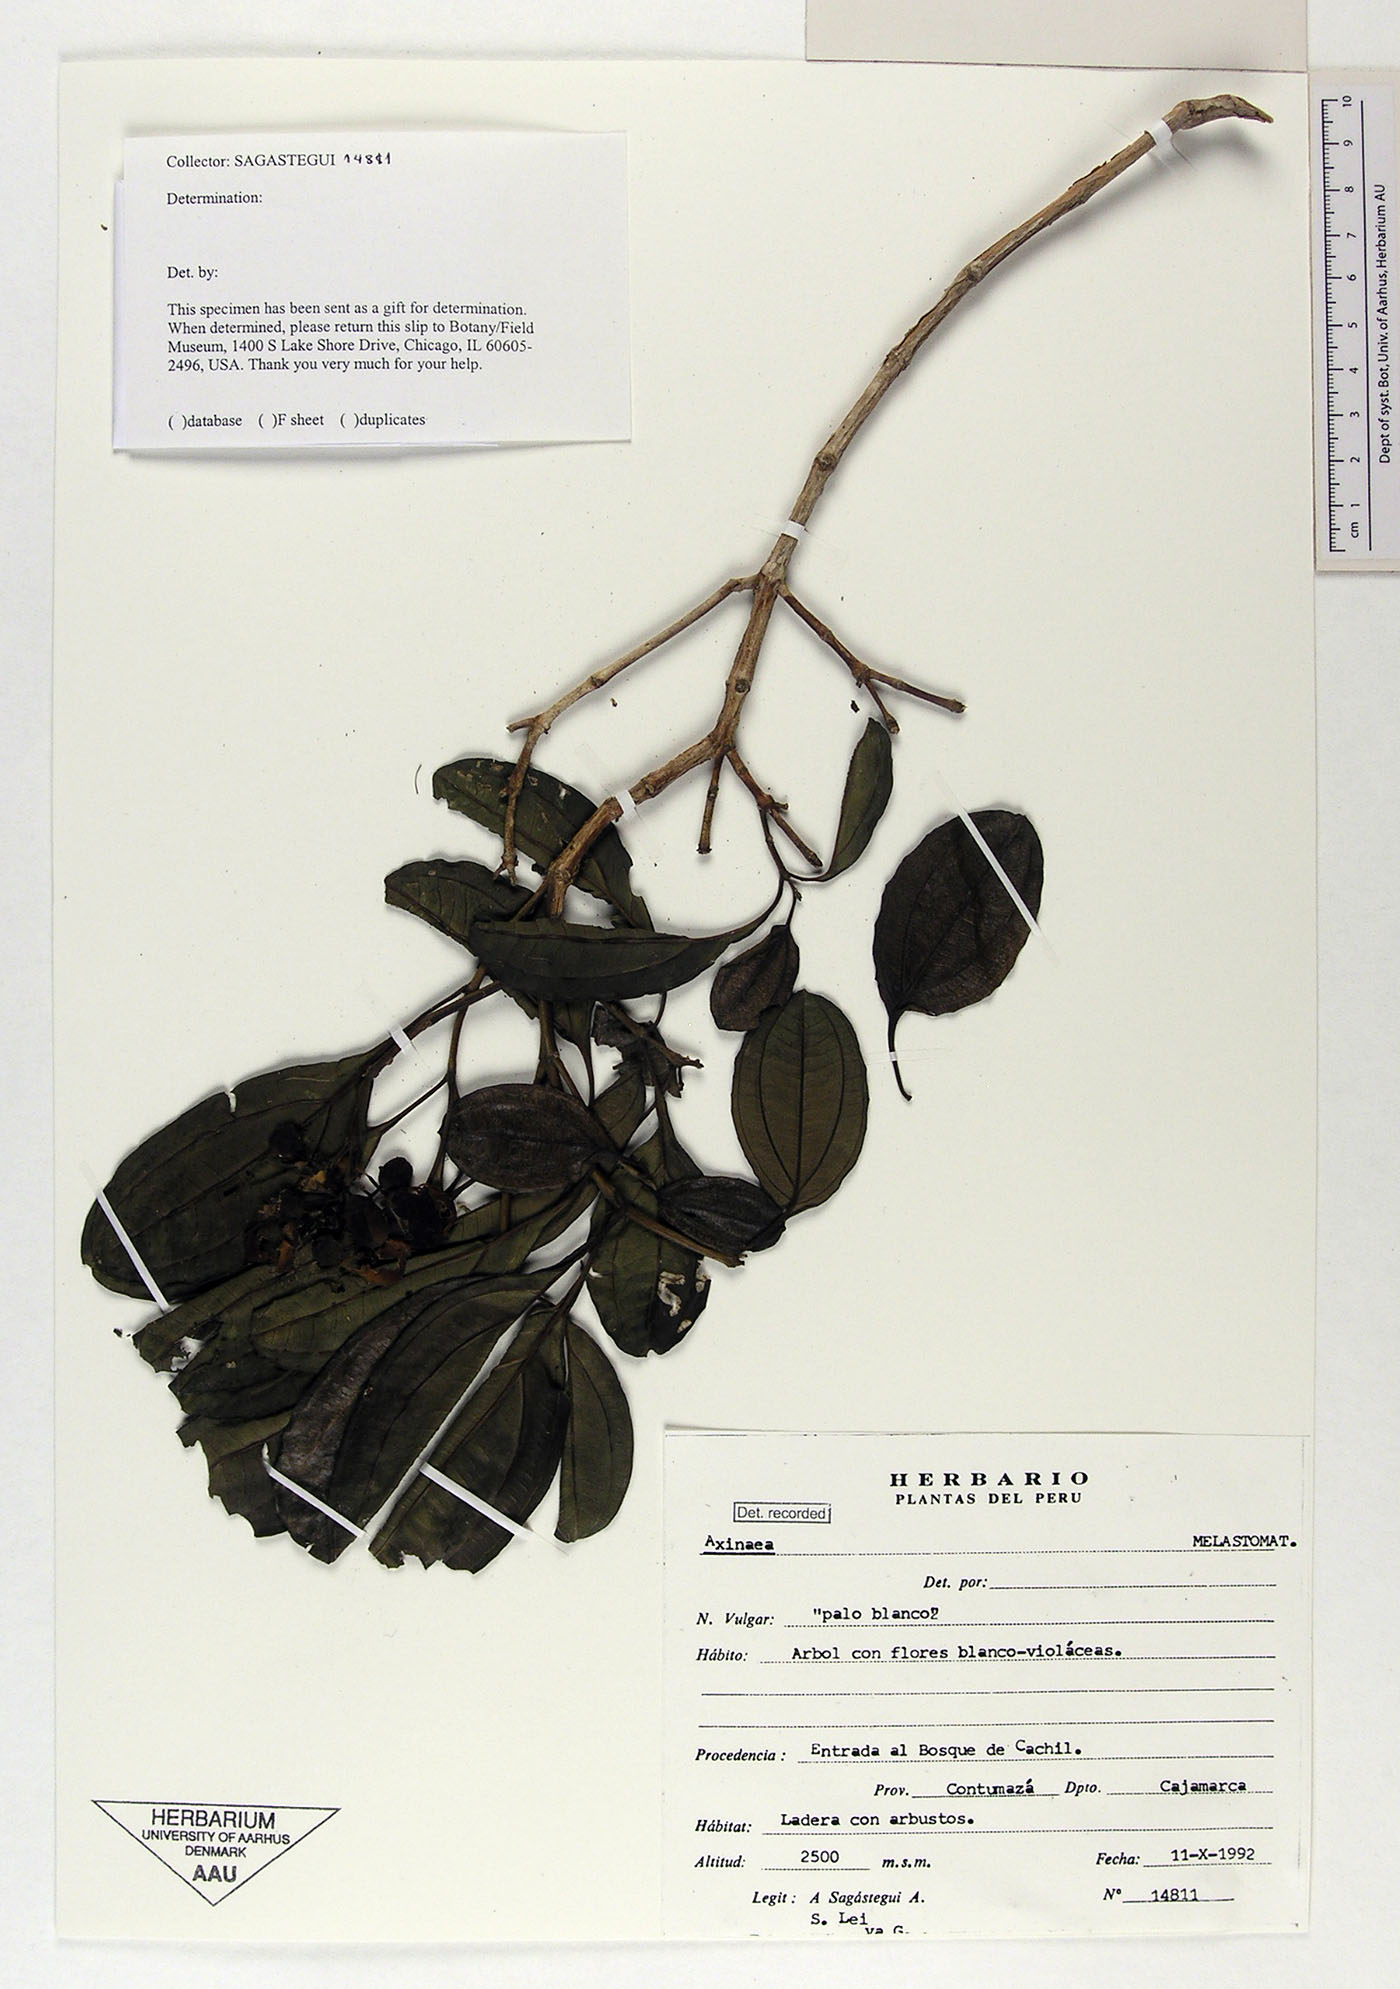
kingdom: Plantae
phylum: Tracheophyta
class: Magnoliopsida
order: Myrtales
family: Melastomataceae
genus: Axinaea
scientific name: Axinaea quitensis
